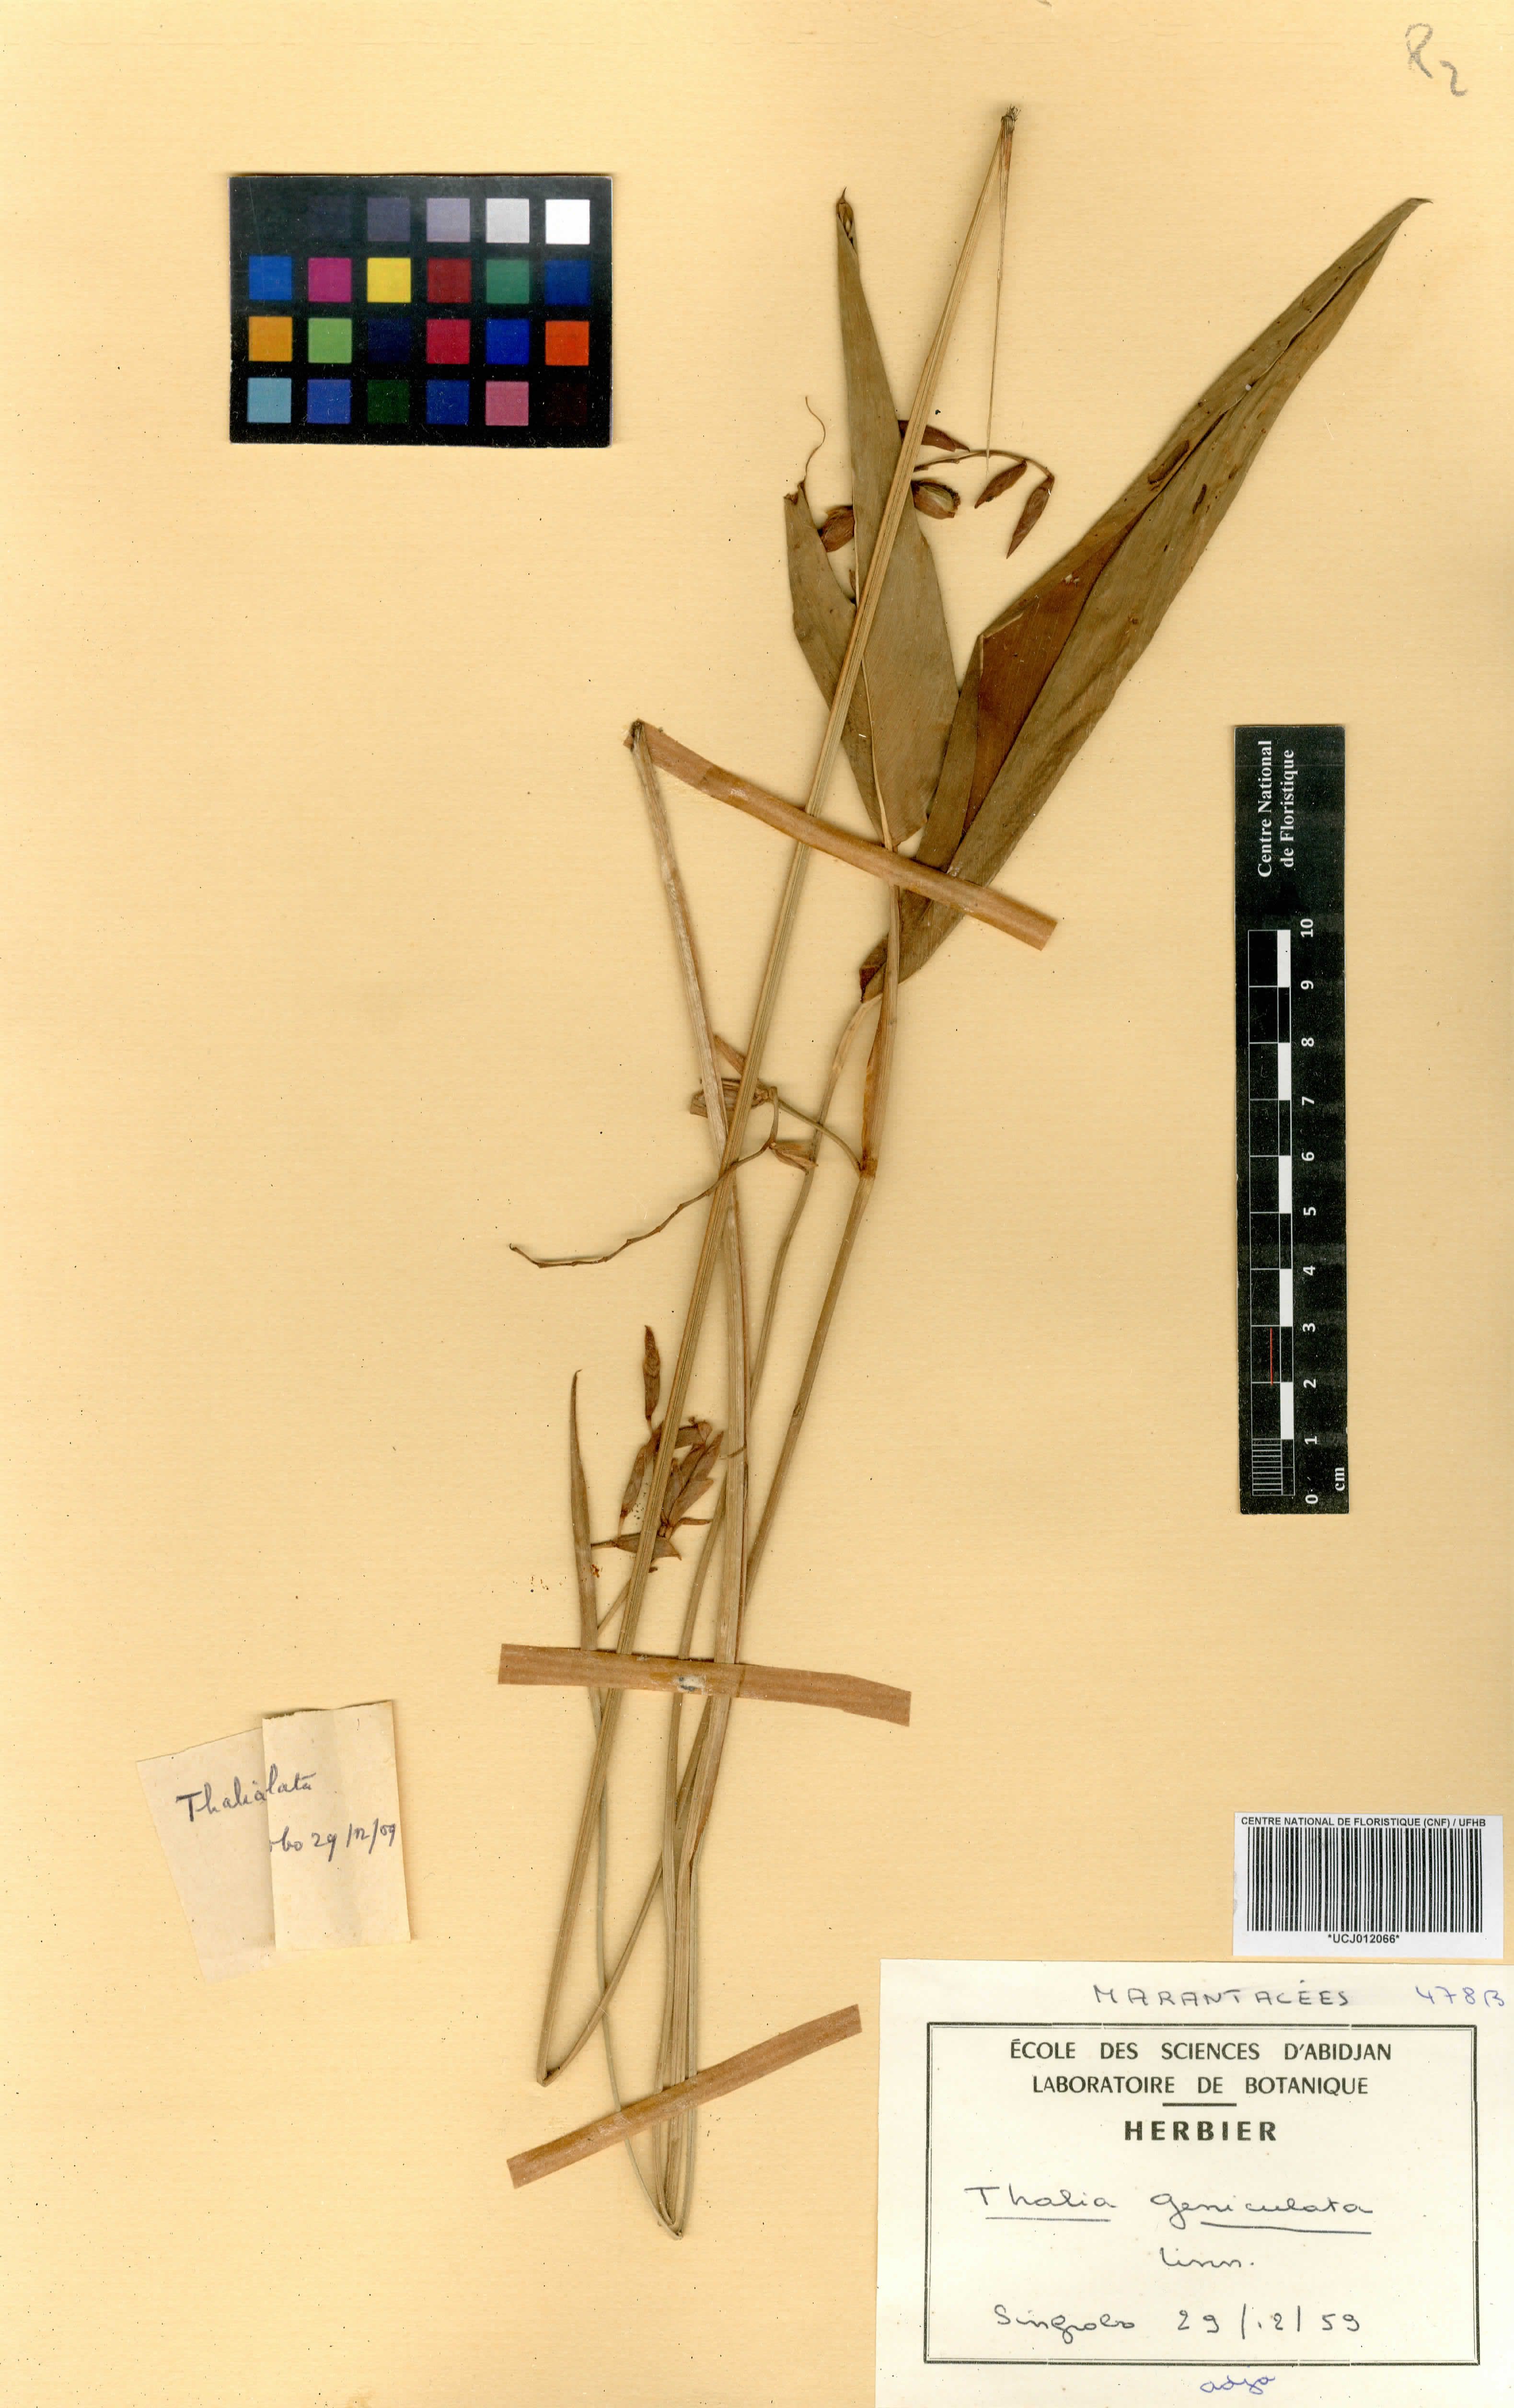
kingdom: Plantae
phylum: Tracheophyta
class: Liliopsida
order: Zingiberales
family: Marantaceae
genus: Thalia
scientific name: Thalia geniculata
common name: Arrowroot
